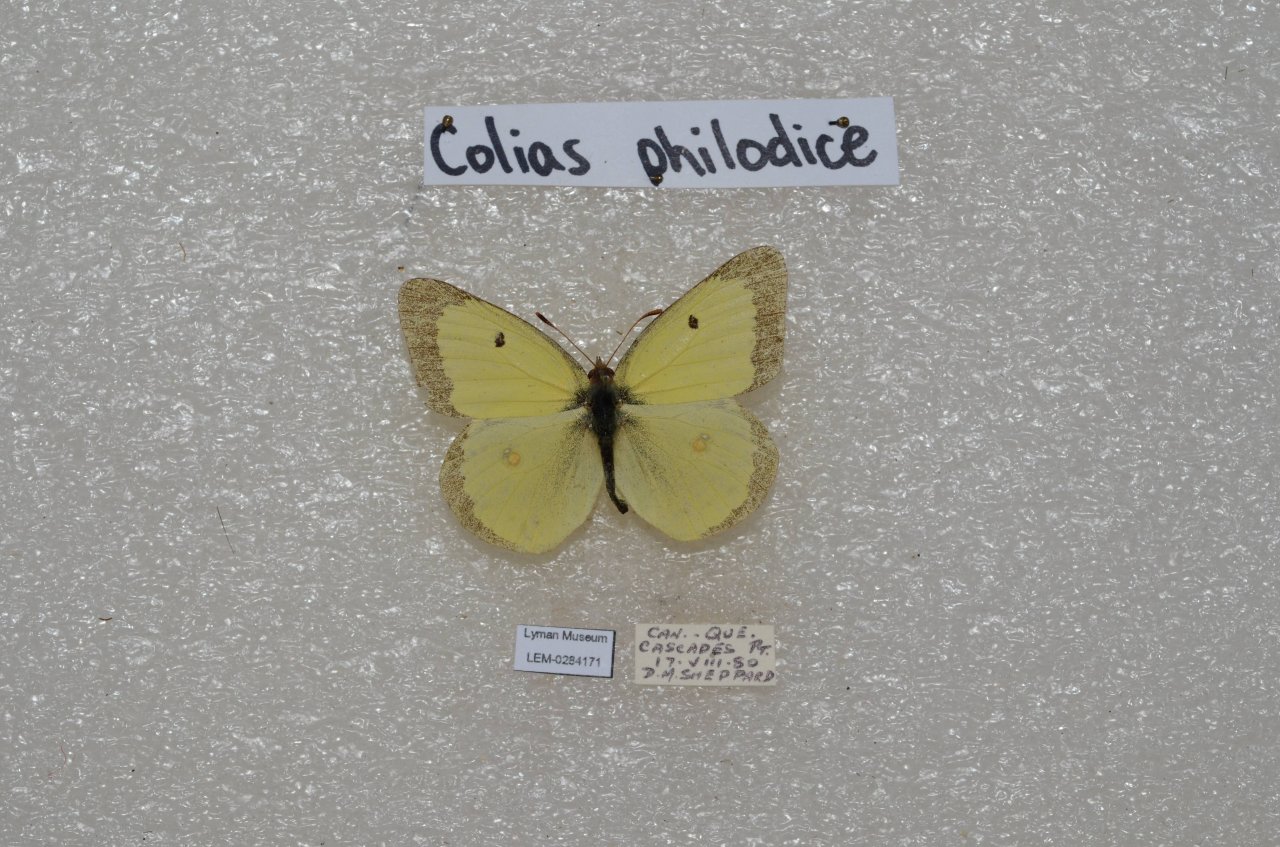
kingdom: Animalia
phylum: Arthropoda
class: Insecta
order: Lepidoptera
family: Pieridae
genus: Colias
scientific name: Colias philodice
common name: Clouded Sulphur
